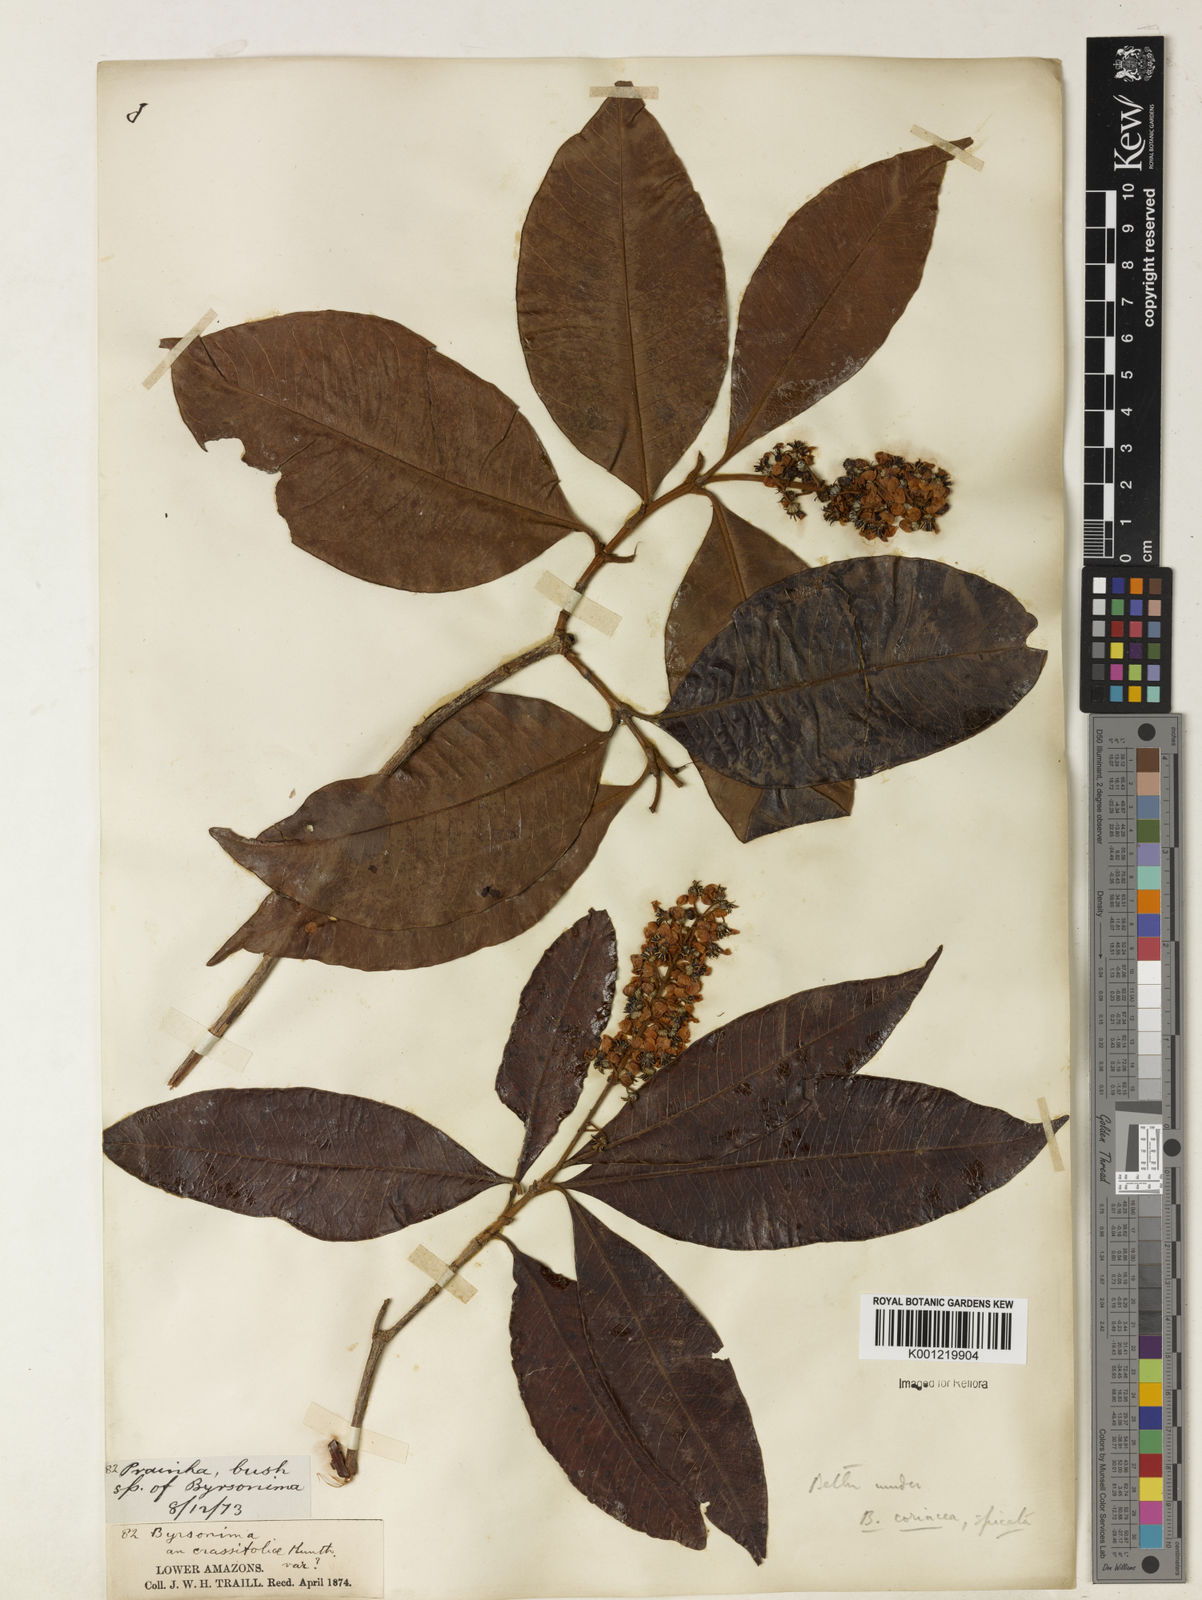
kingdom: Plantae
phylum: Tracheophyta
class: Magnoliopsida
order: Malpighiales
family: Malpighiaceae
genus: Byrsonima
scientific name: Byrsonima
